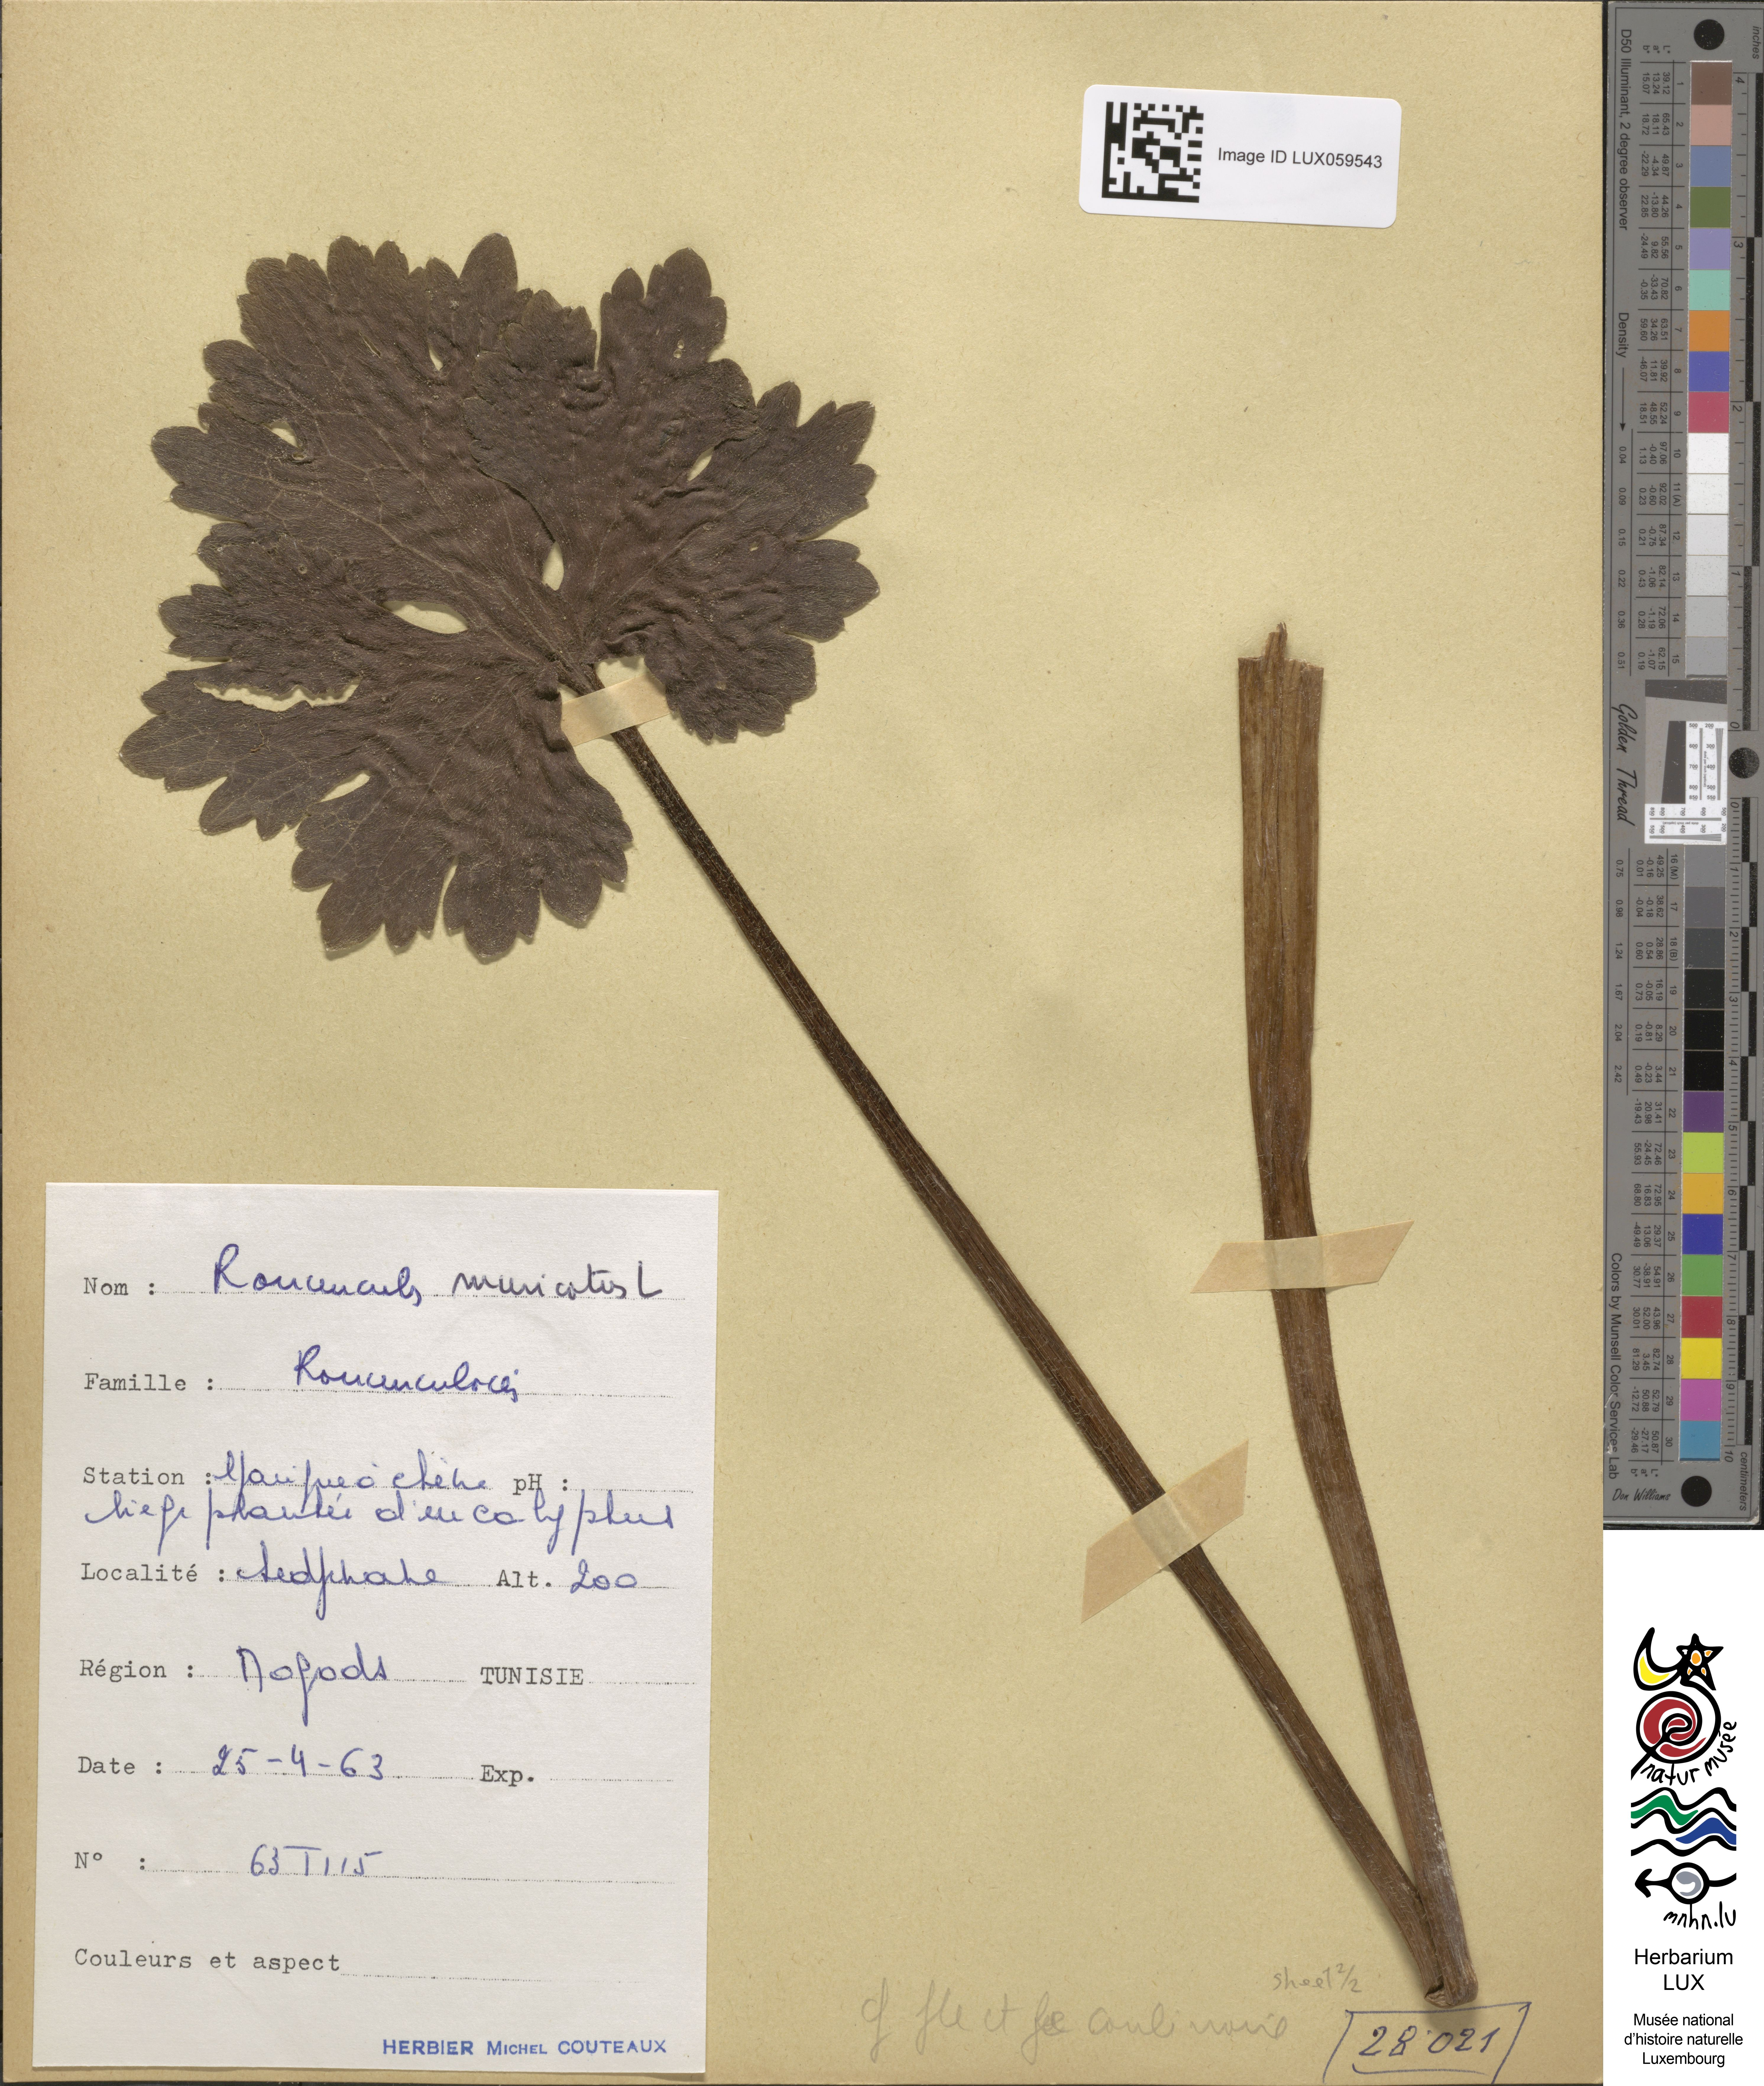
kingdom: Plantae
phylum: Tracheophyta
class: Magnoliopsida
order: Ranunculales
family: Ranunculaceae
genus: Ranunculus
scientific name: Ranunculus muricatus
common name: Rough-fruited buttercup
